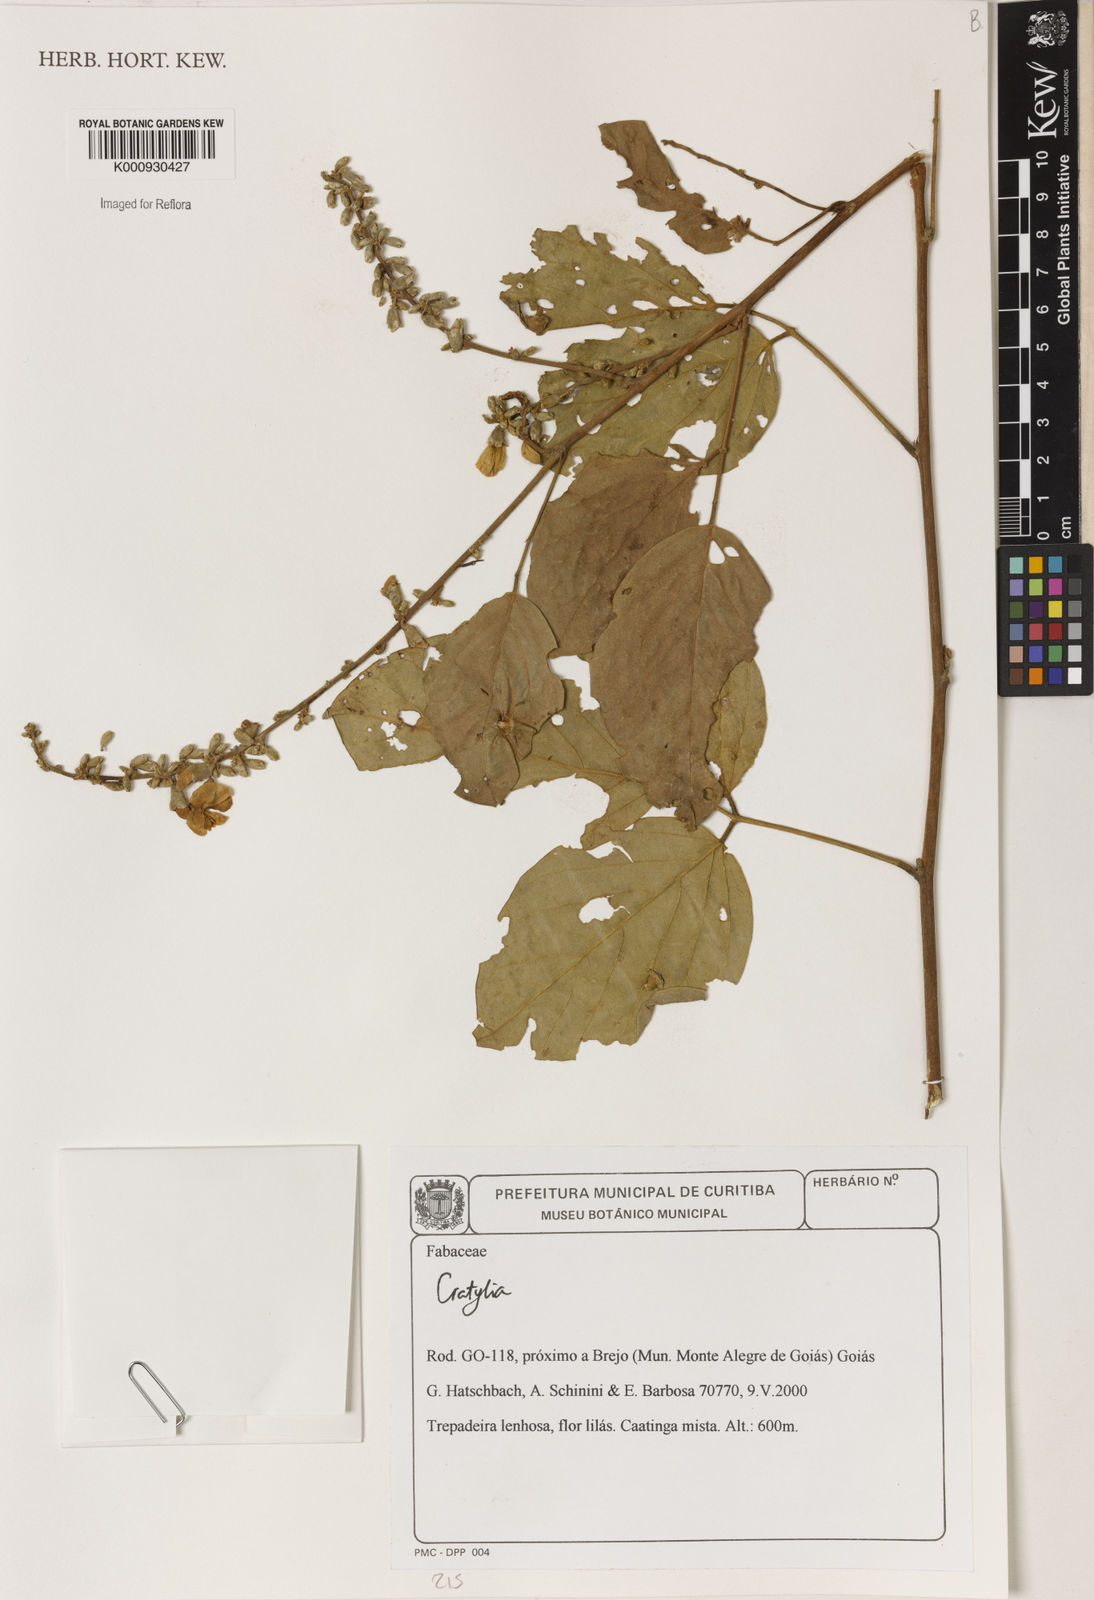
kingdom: Plantae
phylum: Tracheophyta
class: Magnoliopsida
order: Fabales
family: Fabaceae
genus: Cratylia
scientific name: Cratylia
